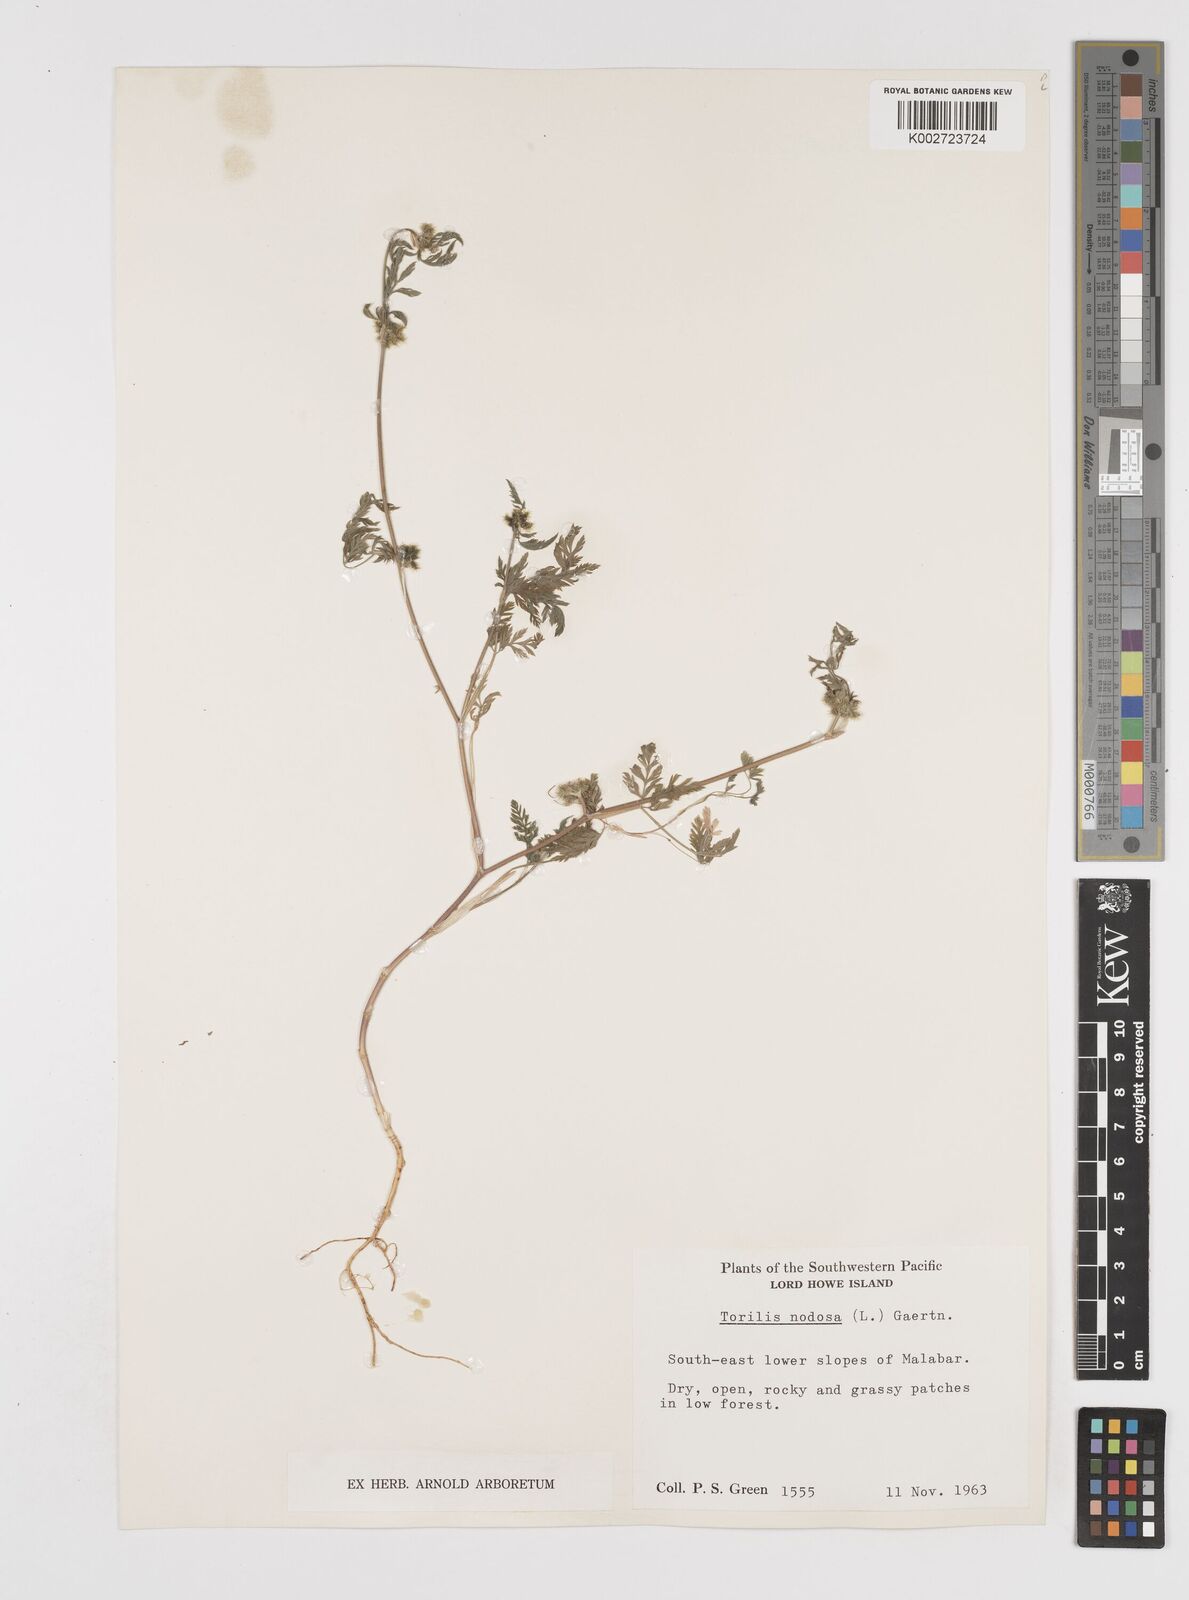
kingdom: Plantae
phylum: Tracheophyta
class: Magnoliopsida
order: Apiales
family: Apiaceae
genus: Torilis
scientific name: Torilis nodosa
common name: Knotted hedge-parsley
